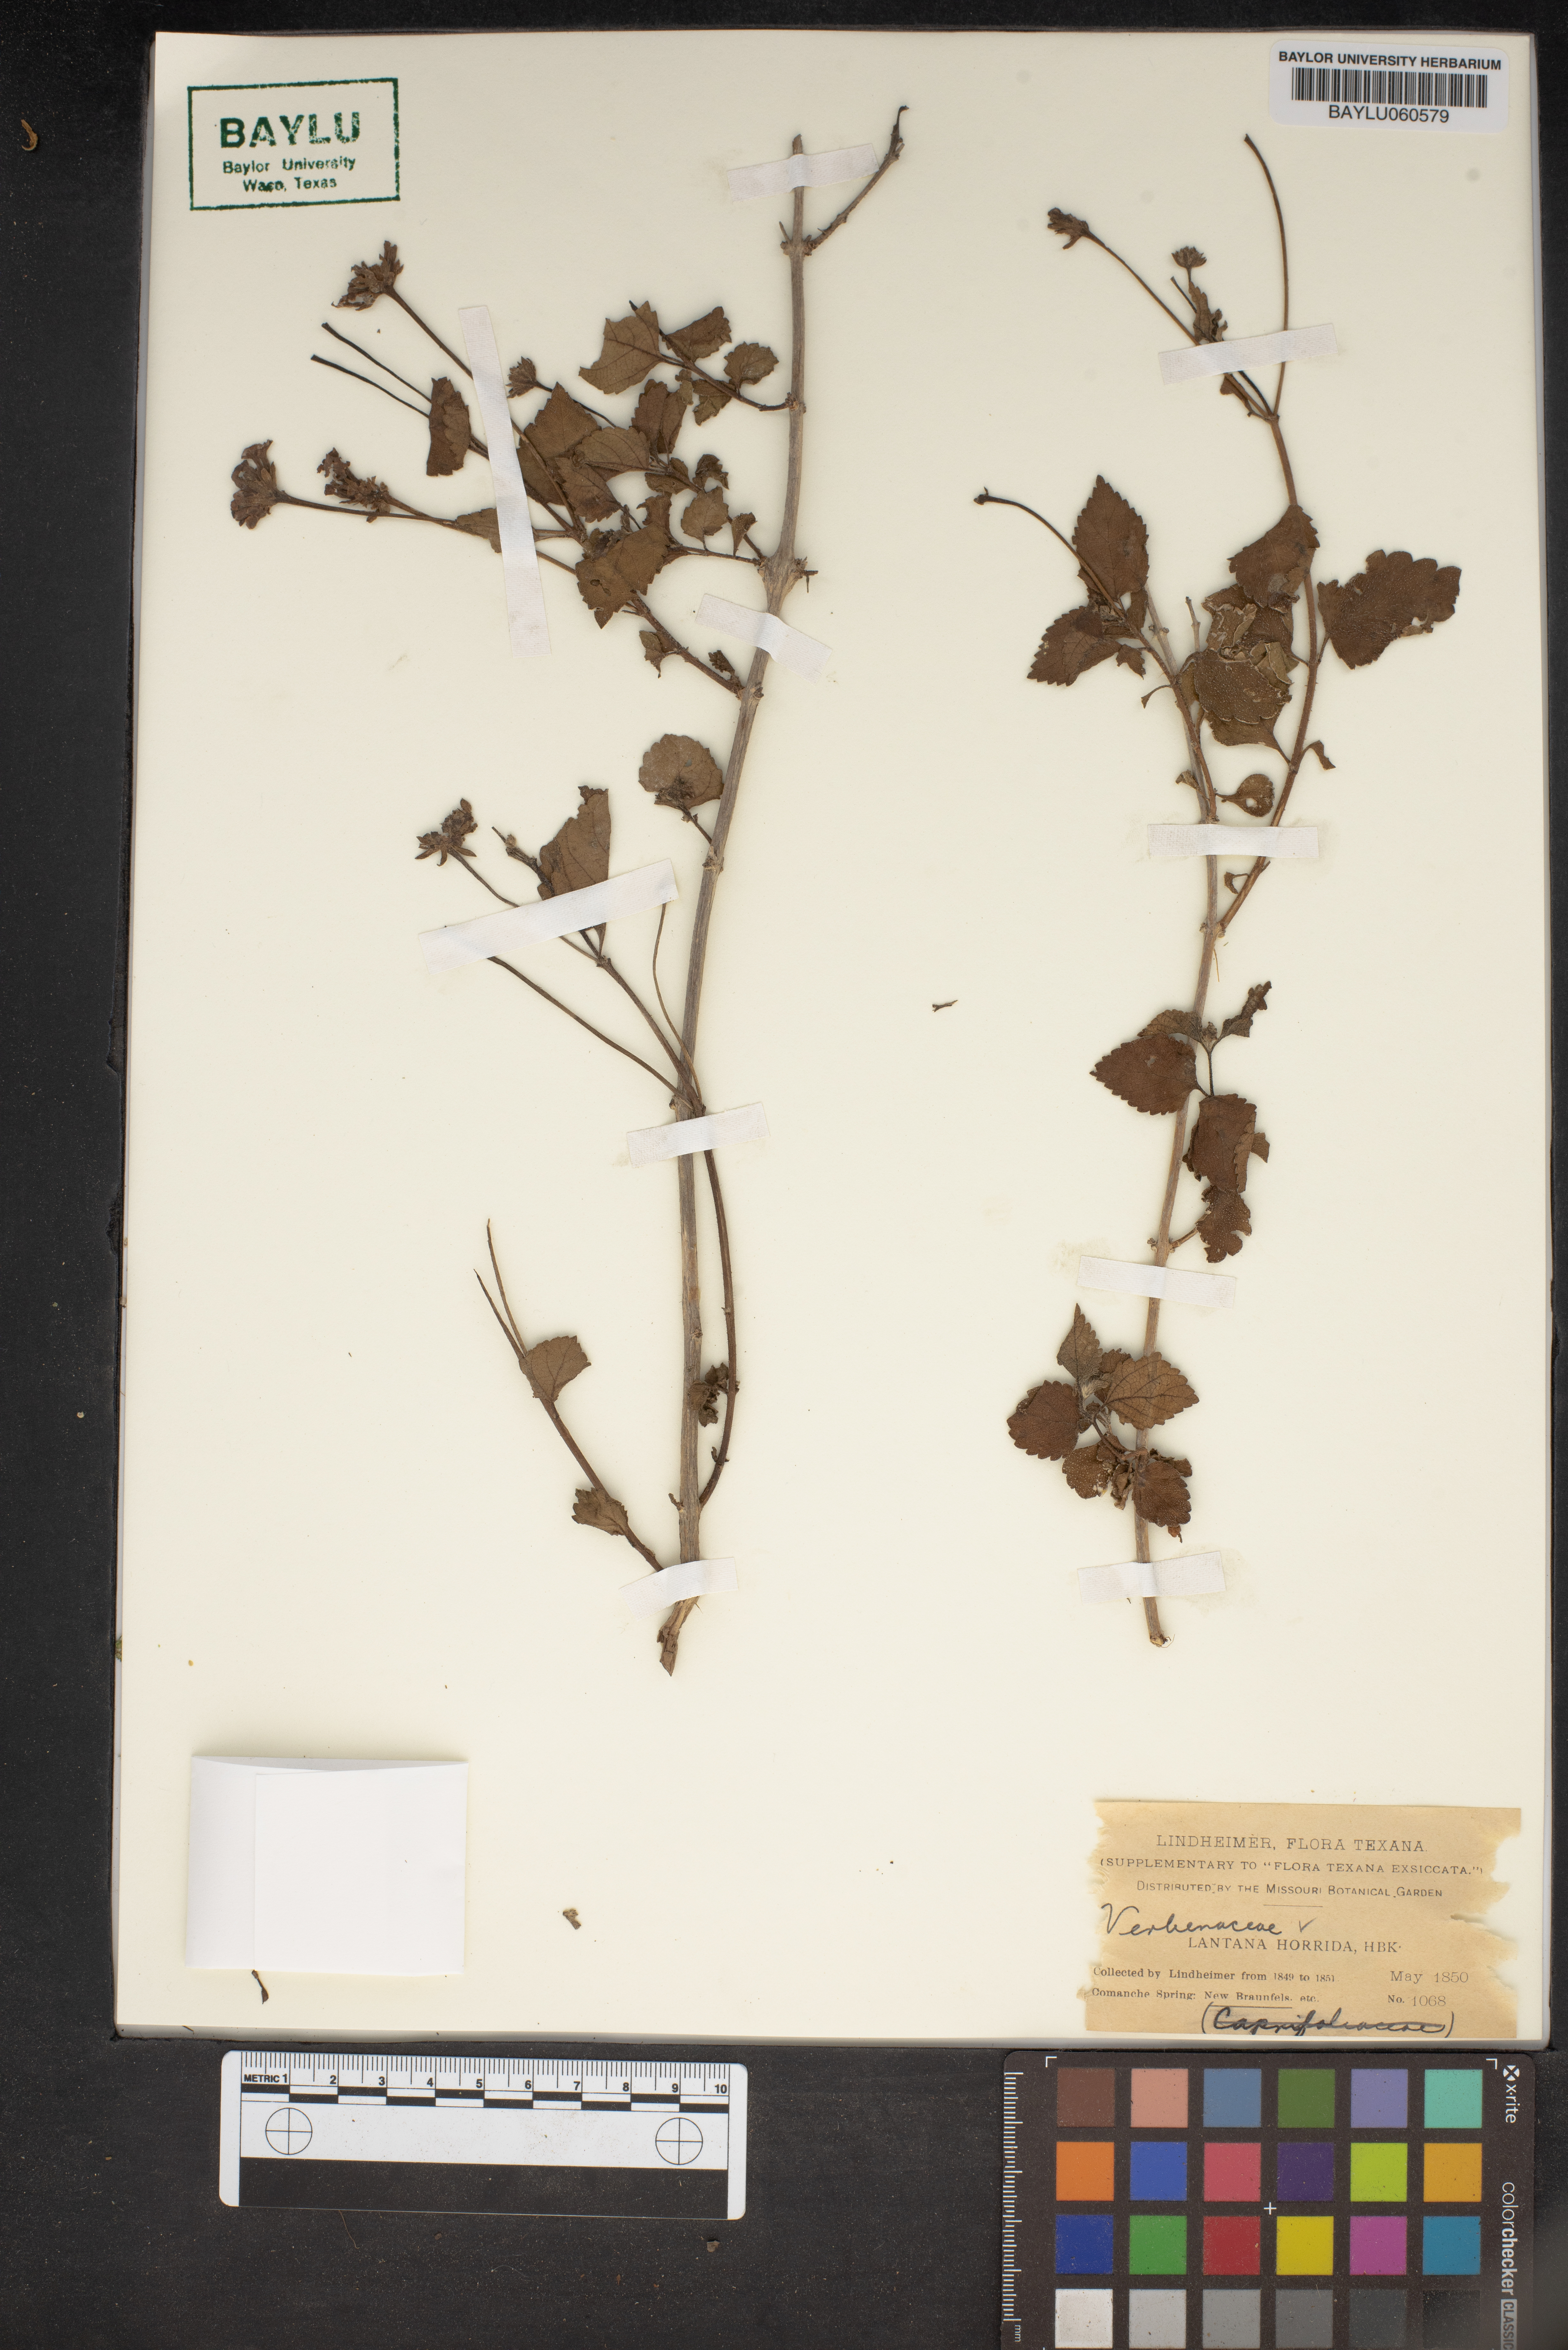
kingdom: Plantae
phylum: Tracheophyta
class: Magnoliopsida
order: Lamiales
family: Verbenaceae
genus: Lantana
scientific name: Lantana horrida
